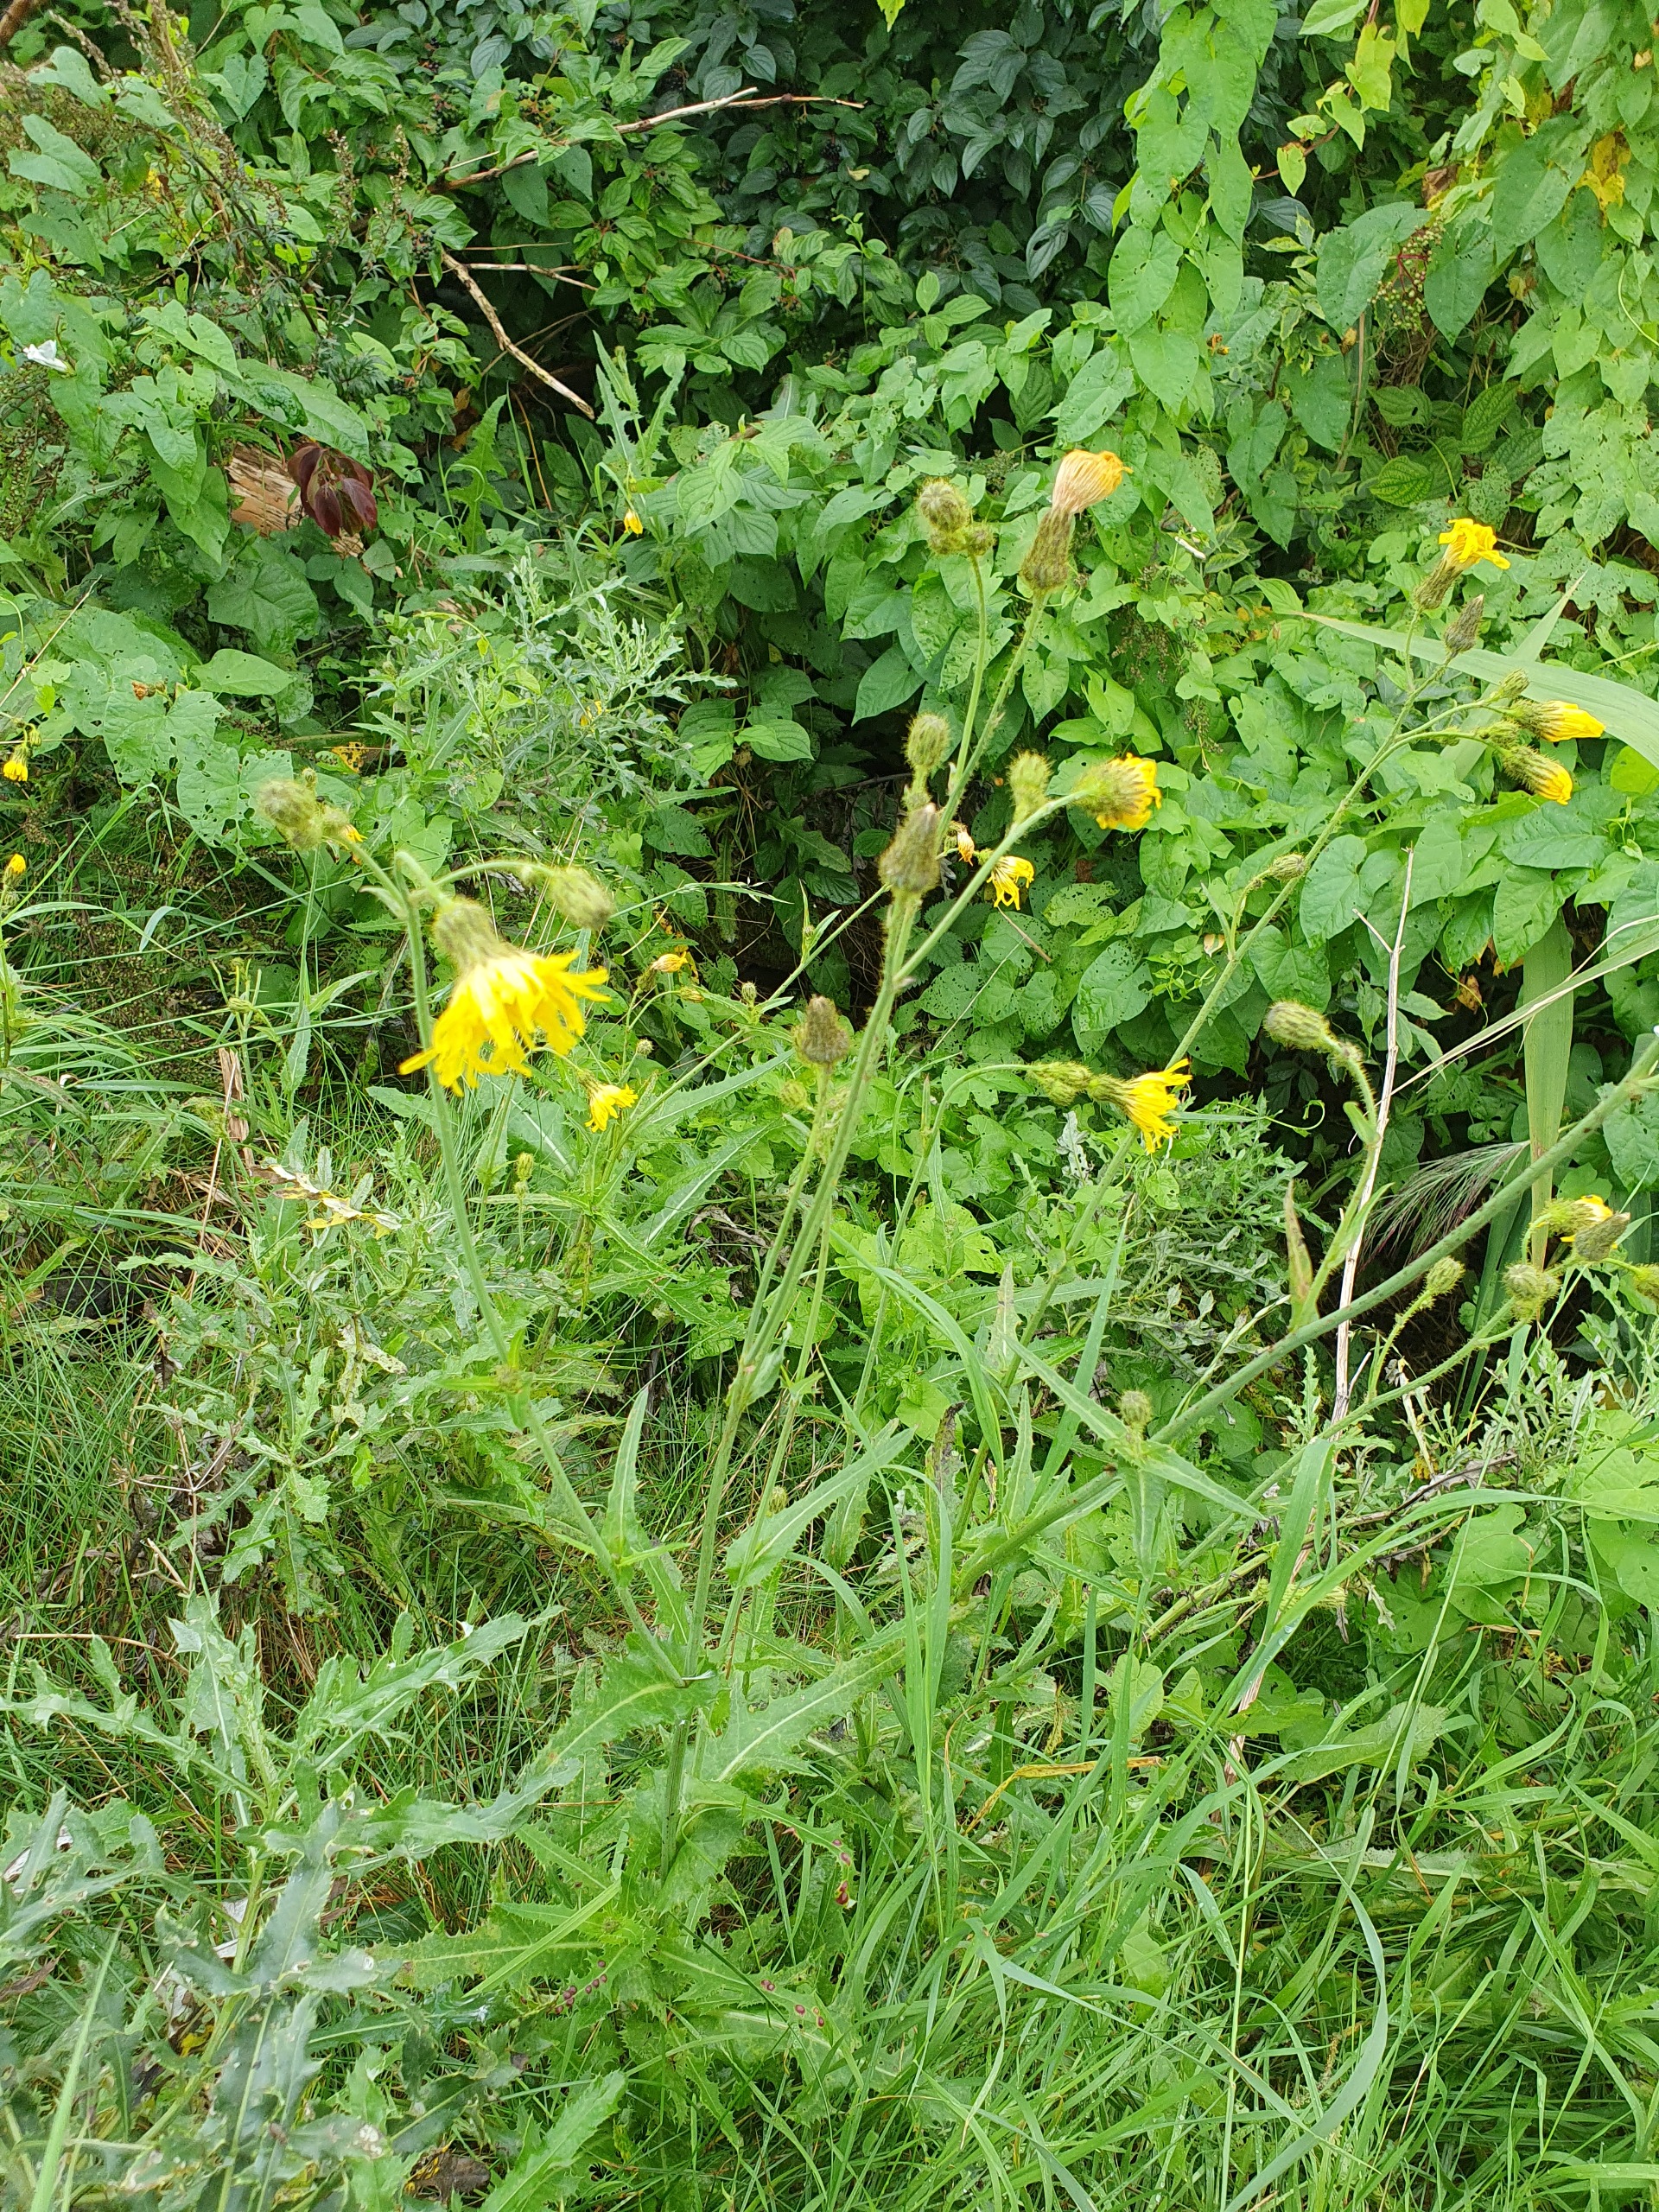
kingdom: Plantae
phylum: Tracheophyta
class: Magnoliopsida
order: Asterales
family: Asteraceae
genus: Sonchus
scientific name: Sonchus arvensis
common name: Ager-svinemælk
